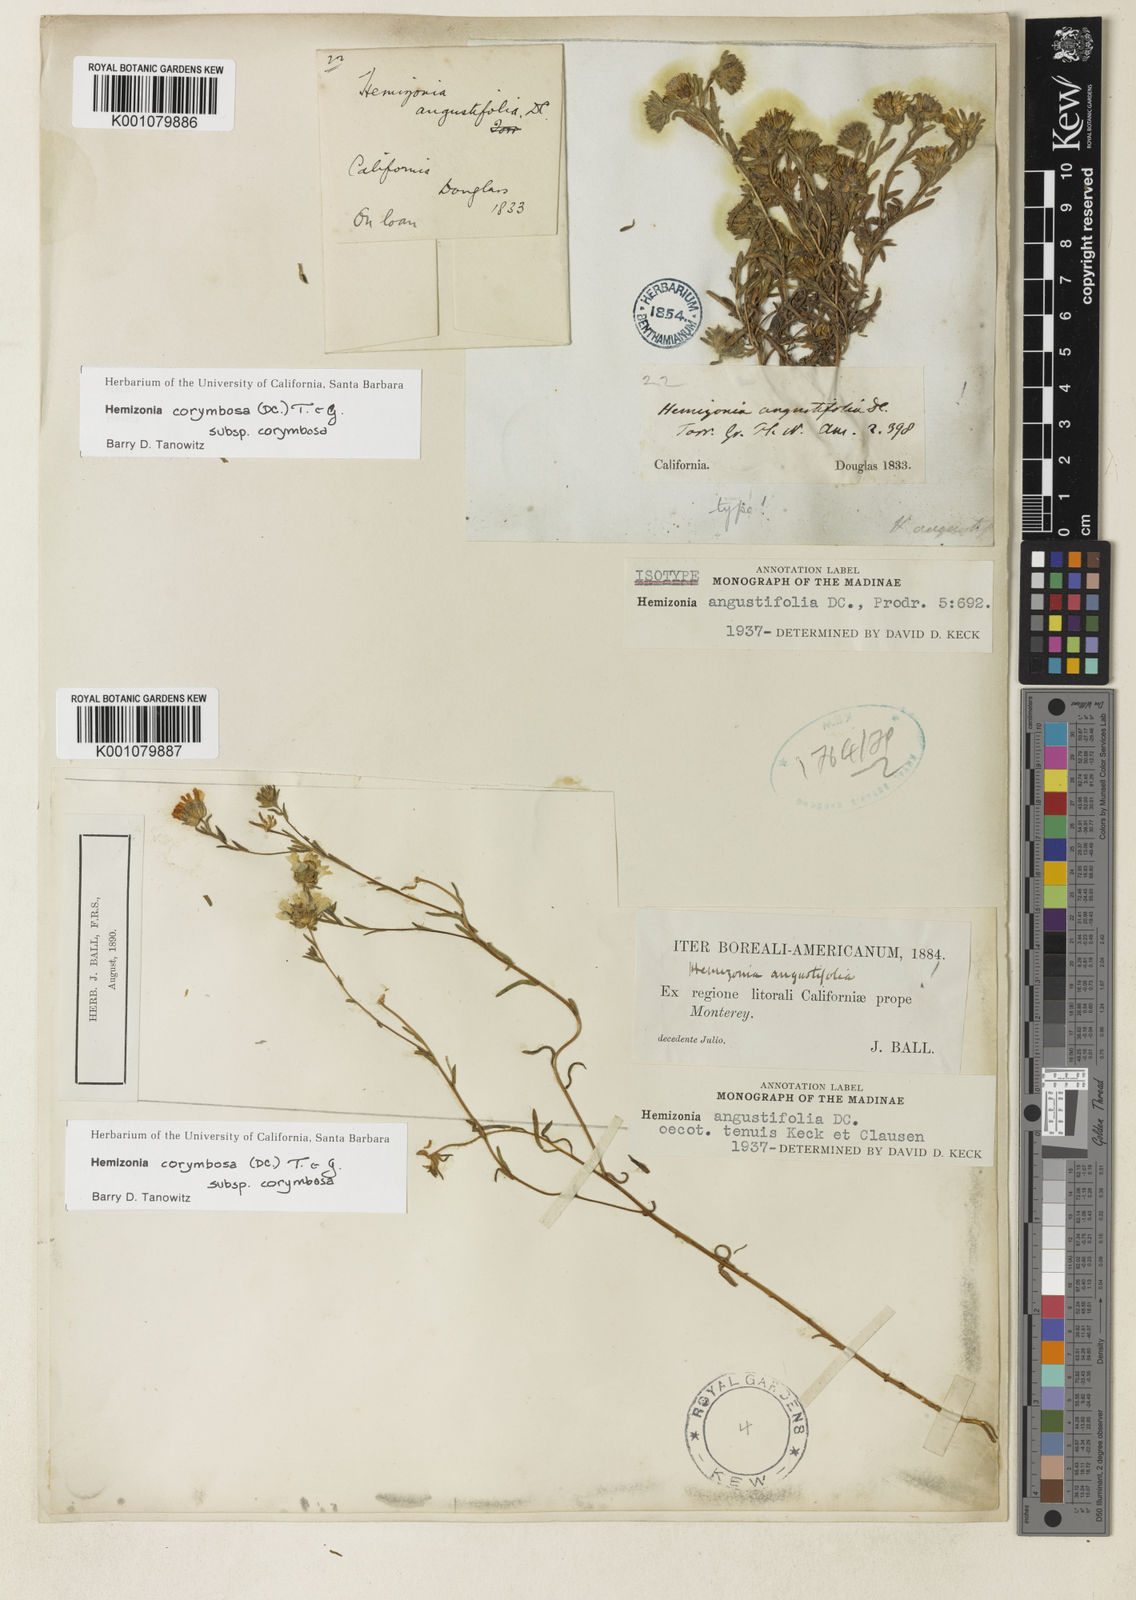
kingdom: Plantae
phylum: Tracheophyta
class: Magnoliopsida
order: Asterales
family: Asteraceae
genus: Hemizonia
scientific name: Hemizonia congesta
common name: Hayfield tarweed
